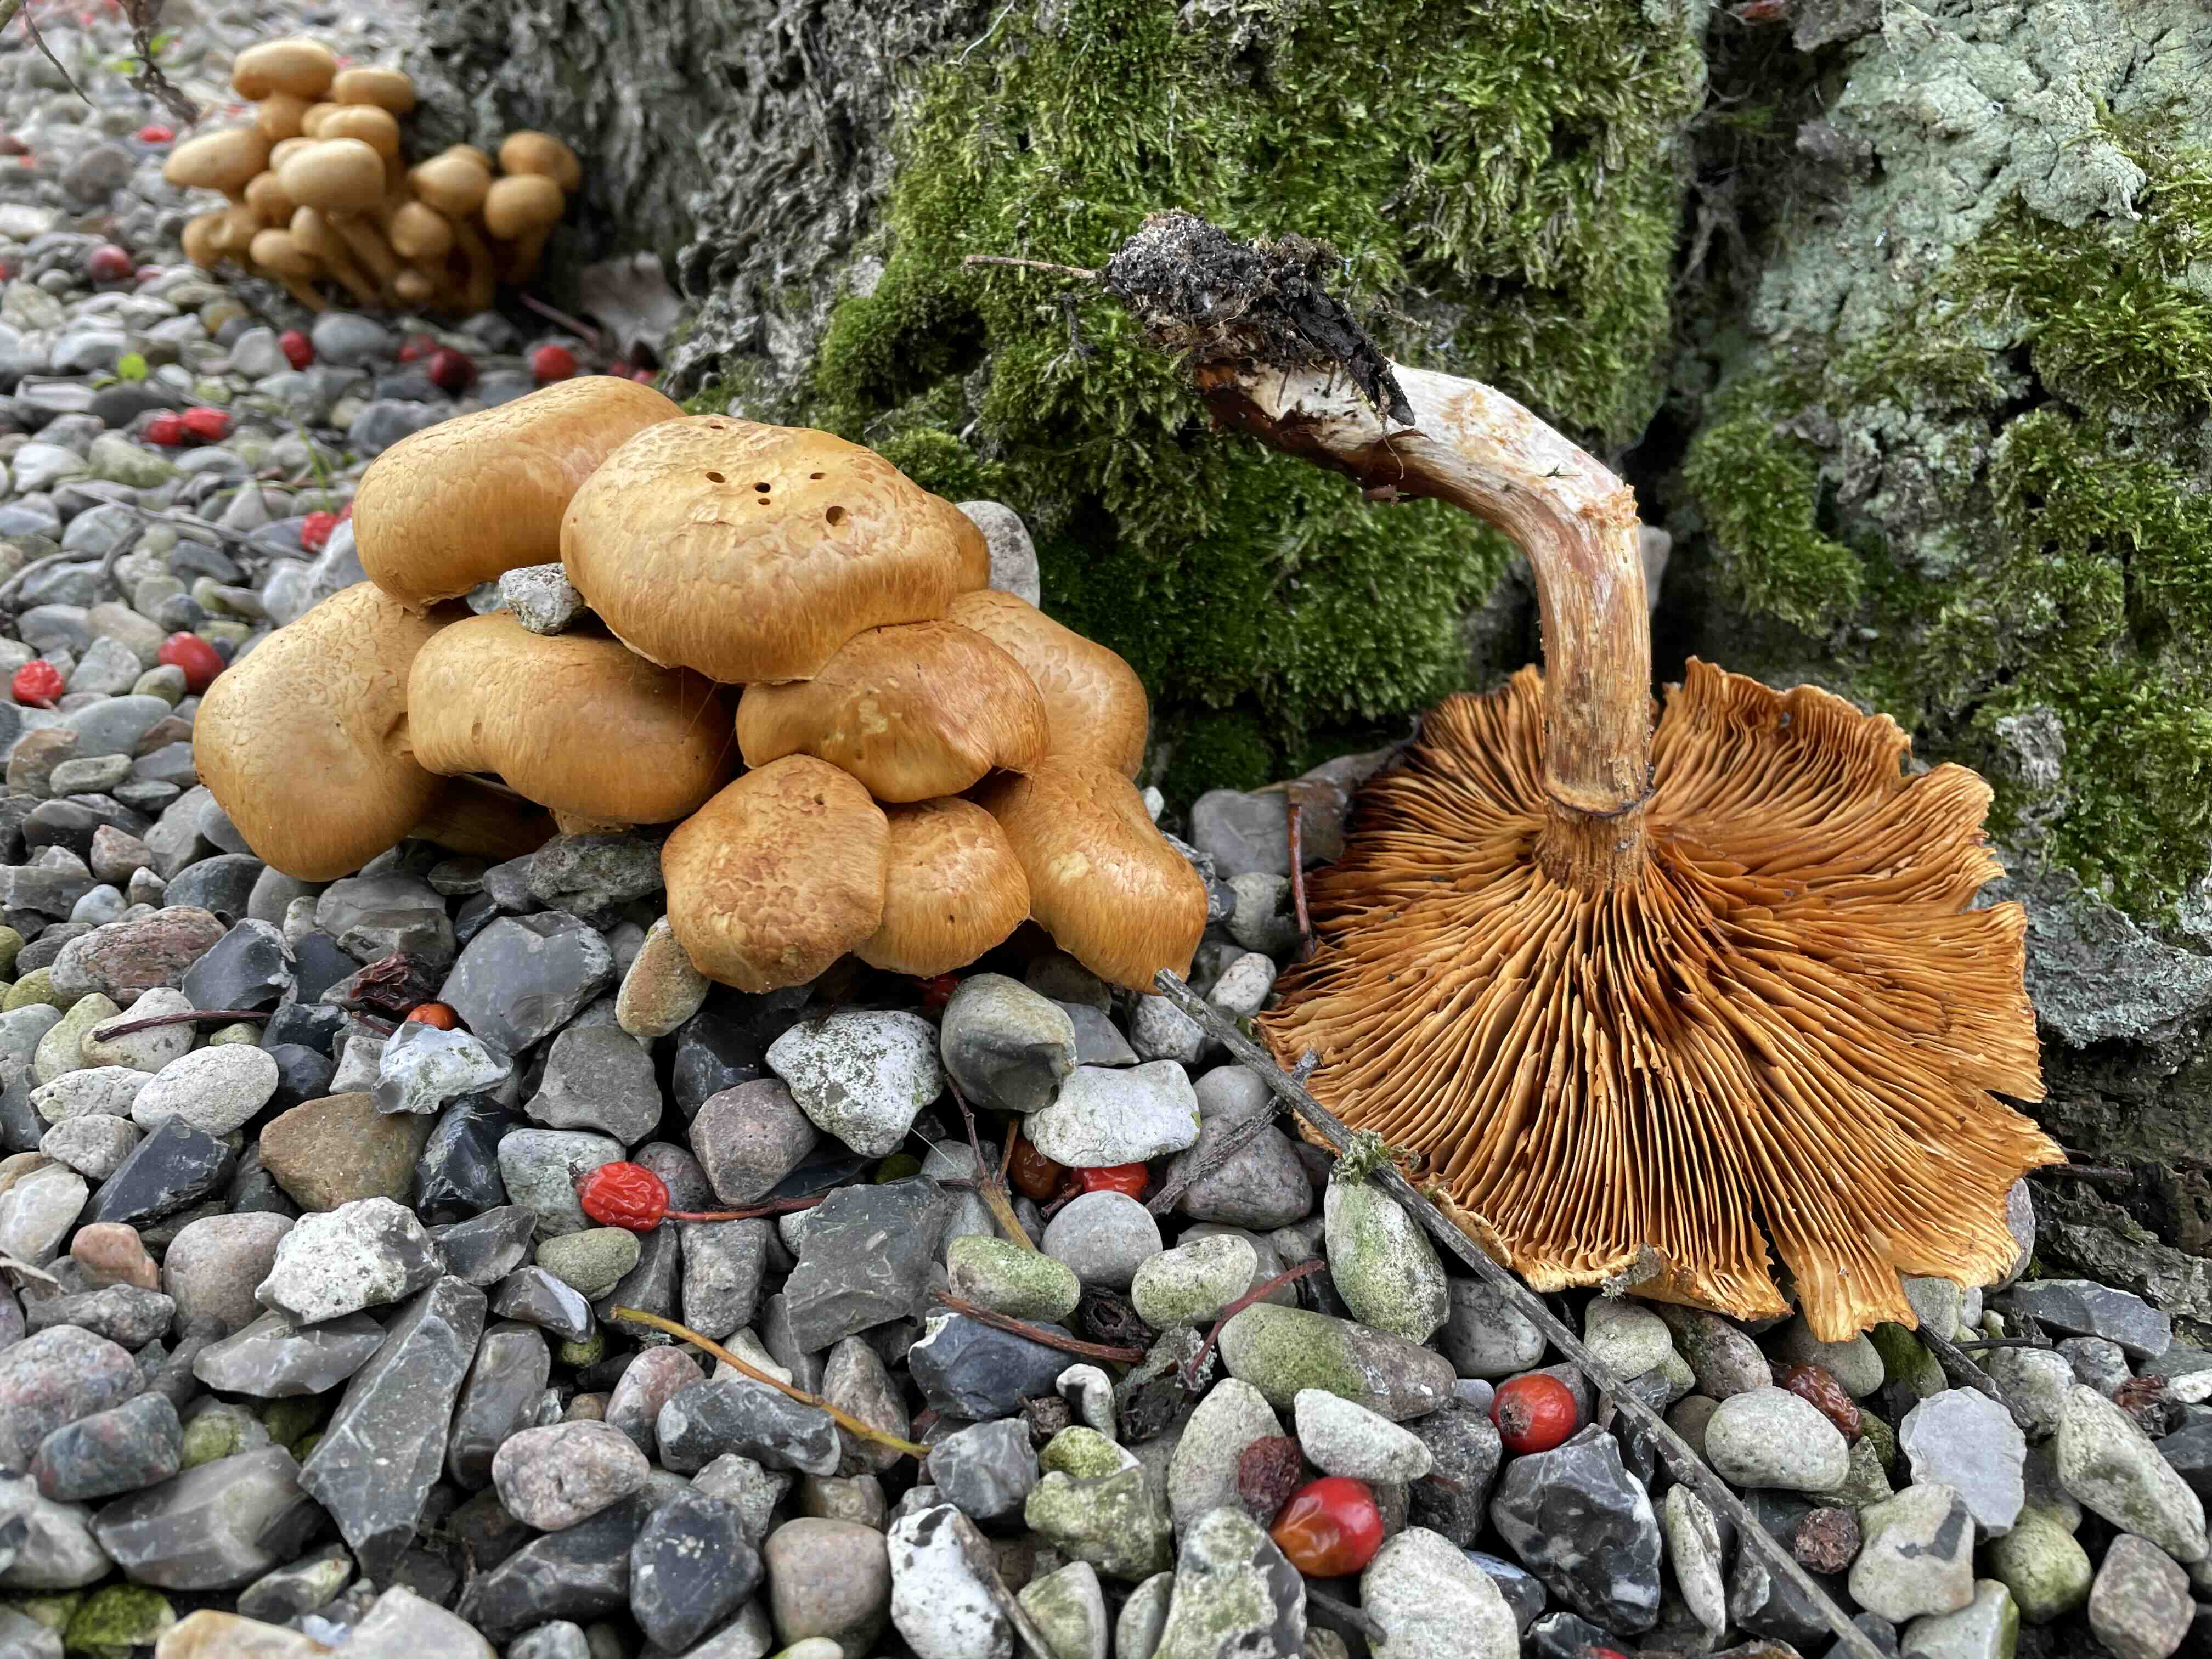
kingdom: Fungi
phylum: Basidiomycota
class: Agaricomycetes
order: Agaricales
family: Hymenogastraceae
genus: Gymnopilus
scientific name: Gymnopilus spectabilis
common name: fibret flammehat
